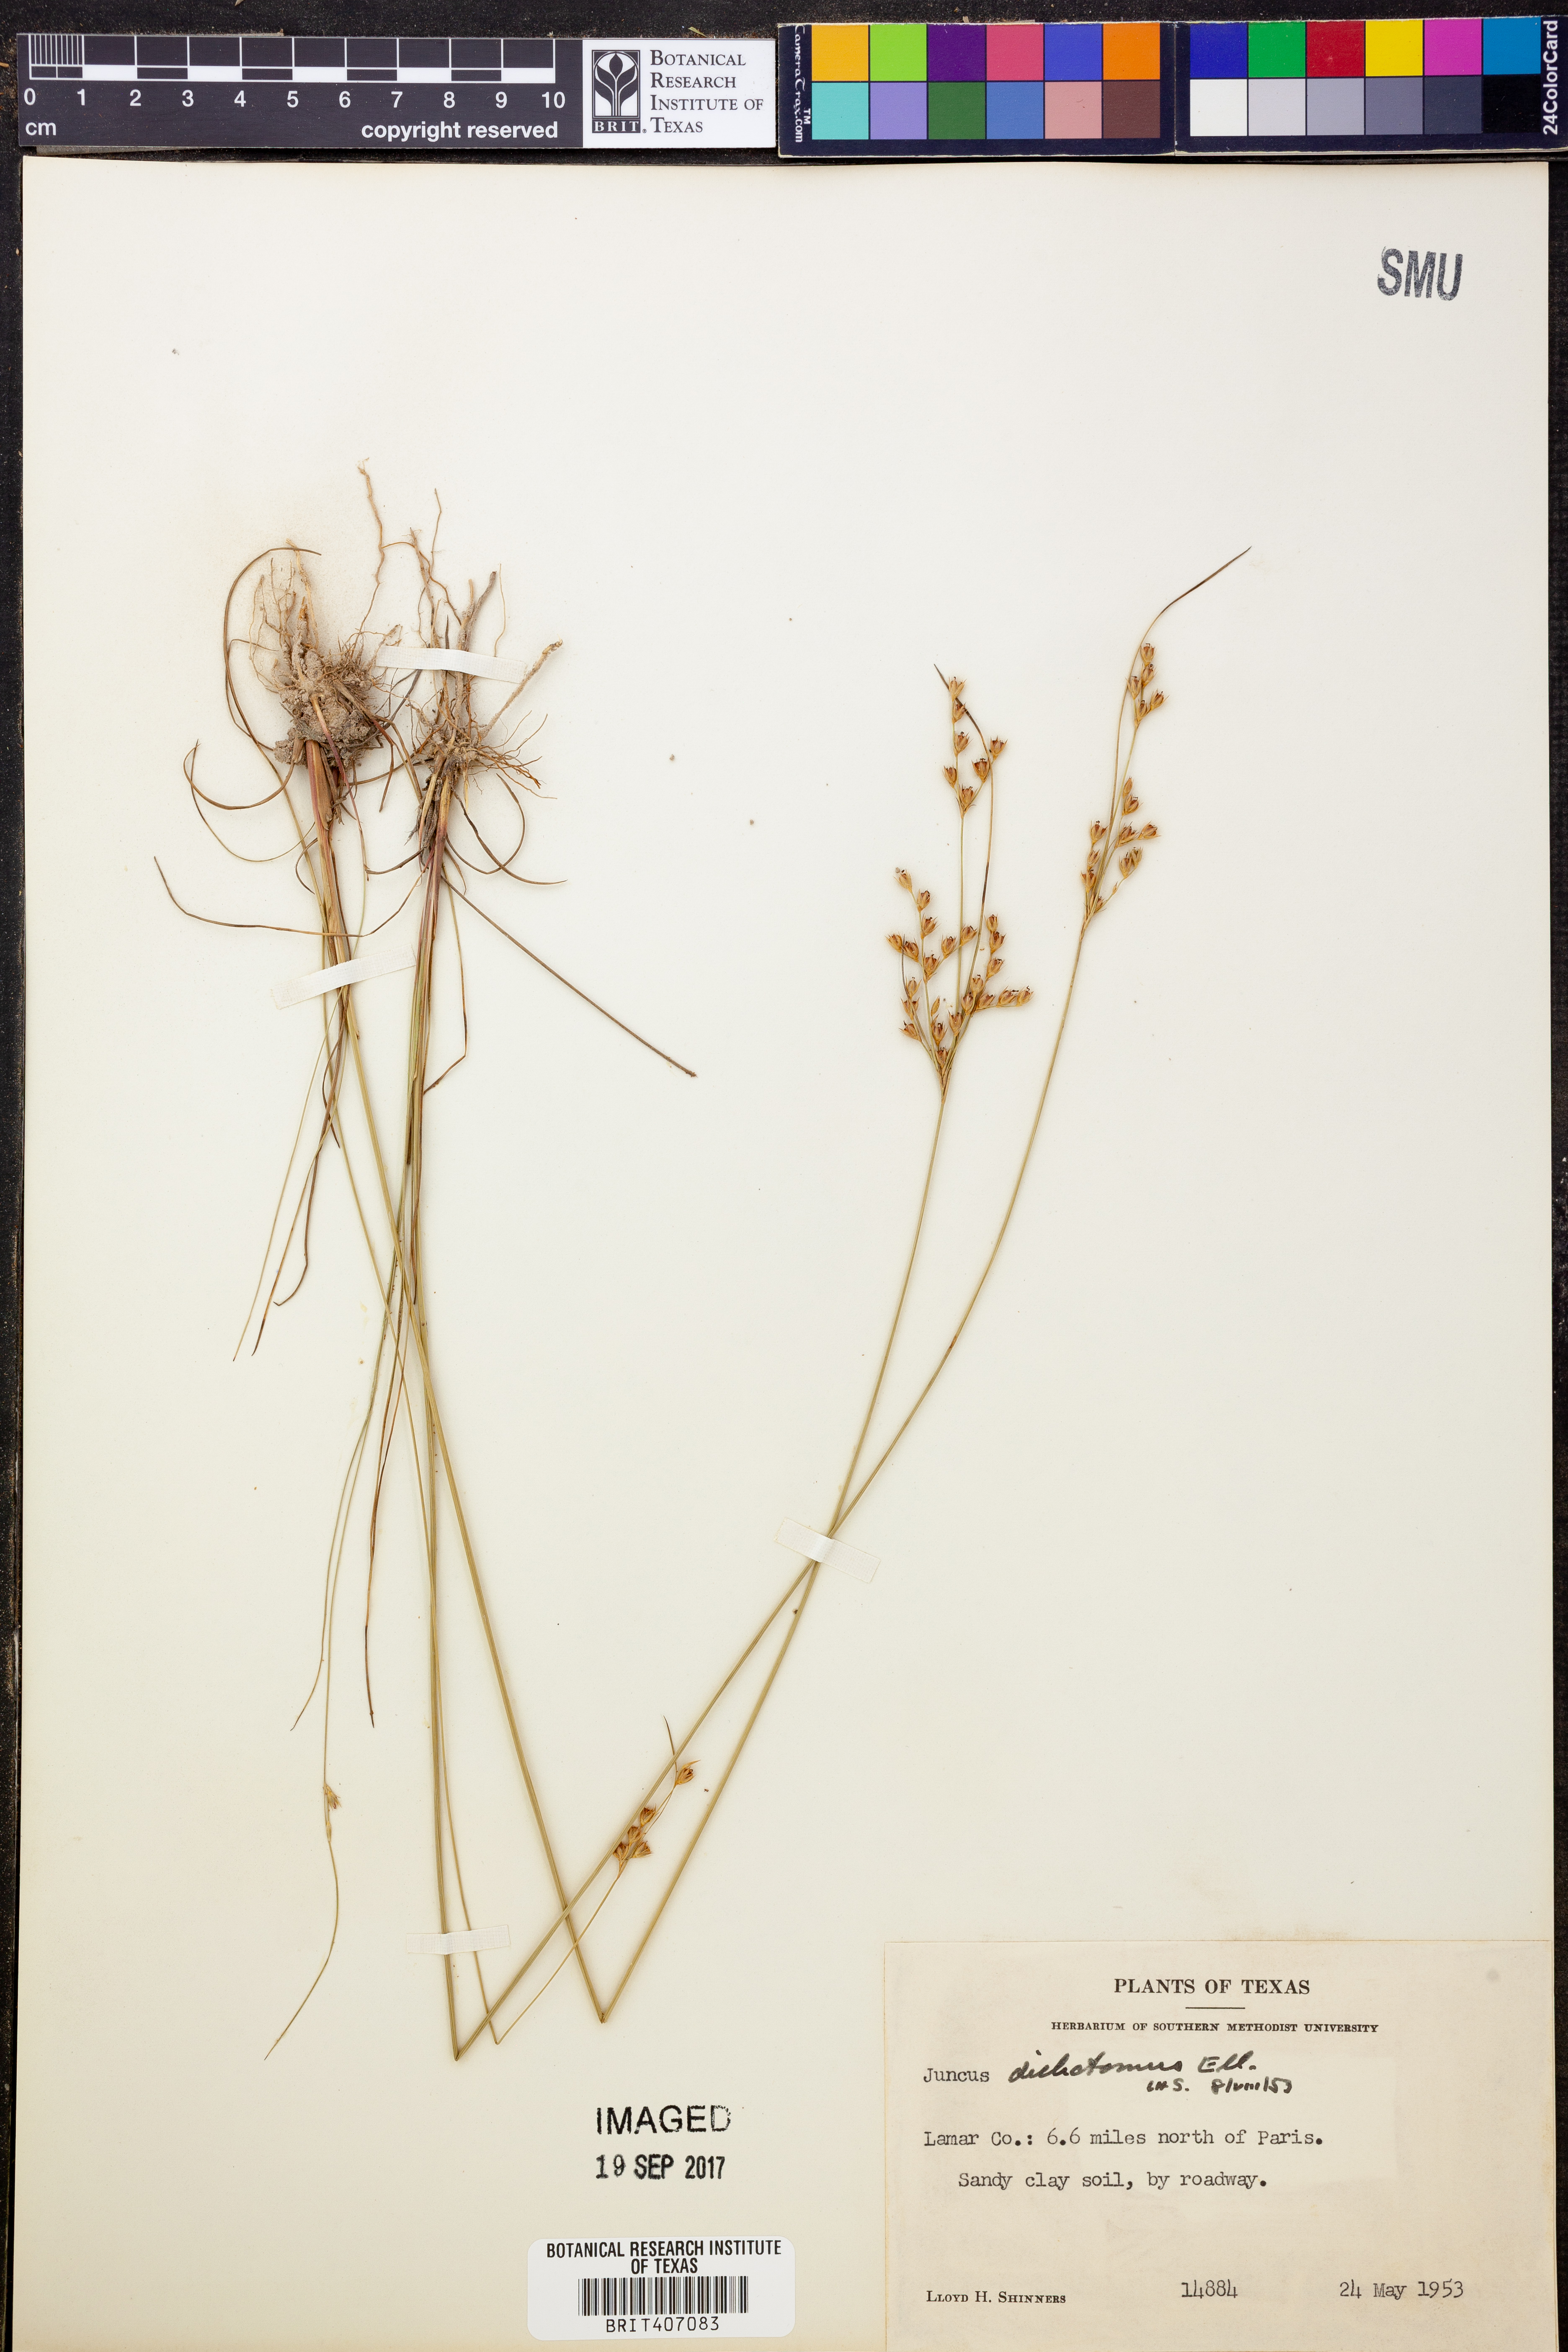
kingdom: Plantae
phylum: Tracheophyta
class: Liliopsida
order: Poales
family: Juncaceae
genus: Juncus
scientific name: Juncus dichotomus
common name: Forked rush
